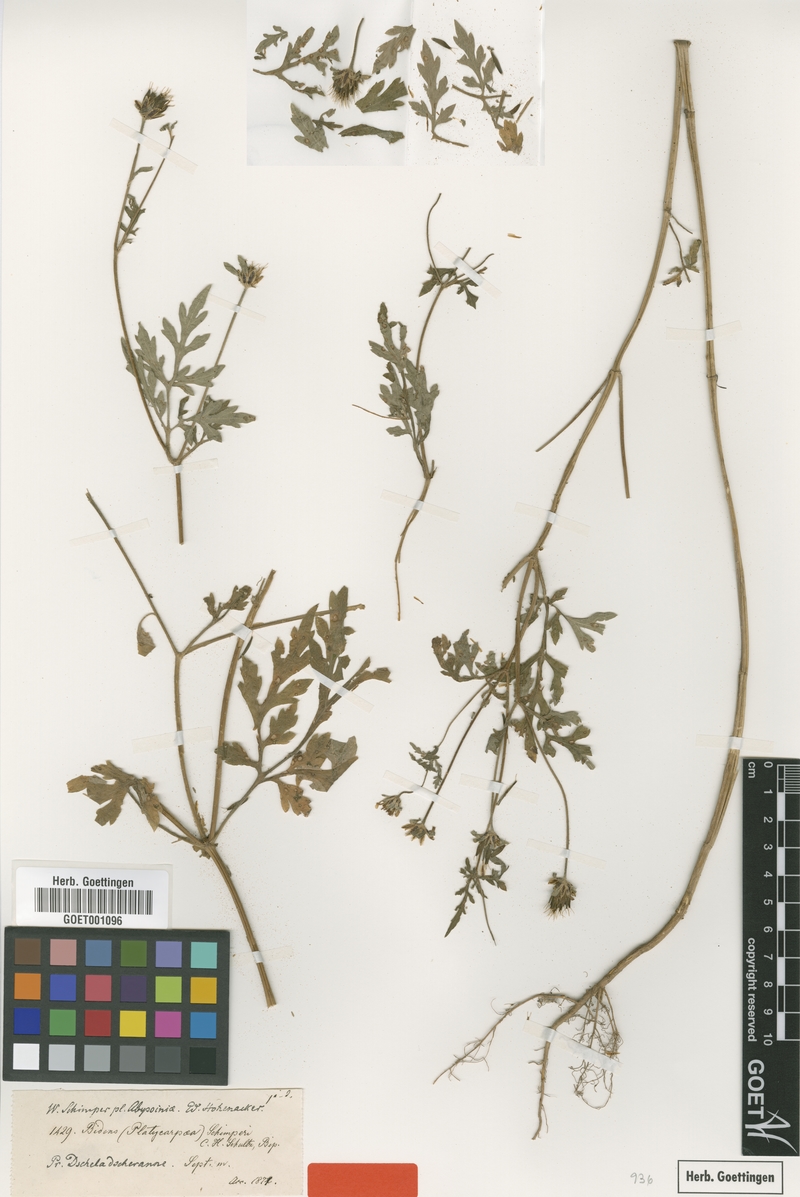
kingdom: Plantae
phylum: Tracheophyta
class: Magnoliopsida
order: Asterales
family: Asteraceae
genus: Bidens
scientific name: Bidens schimperi
